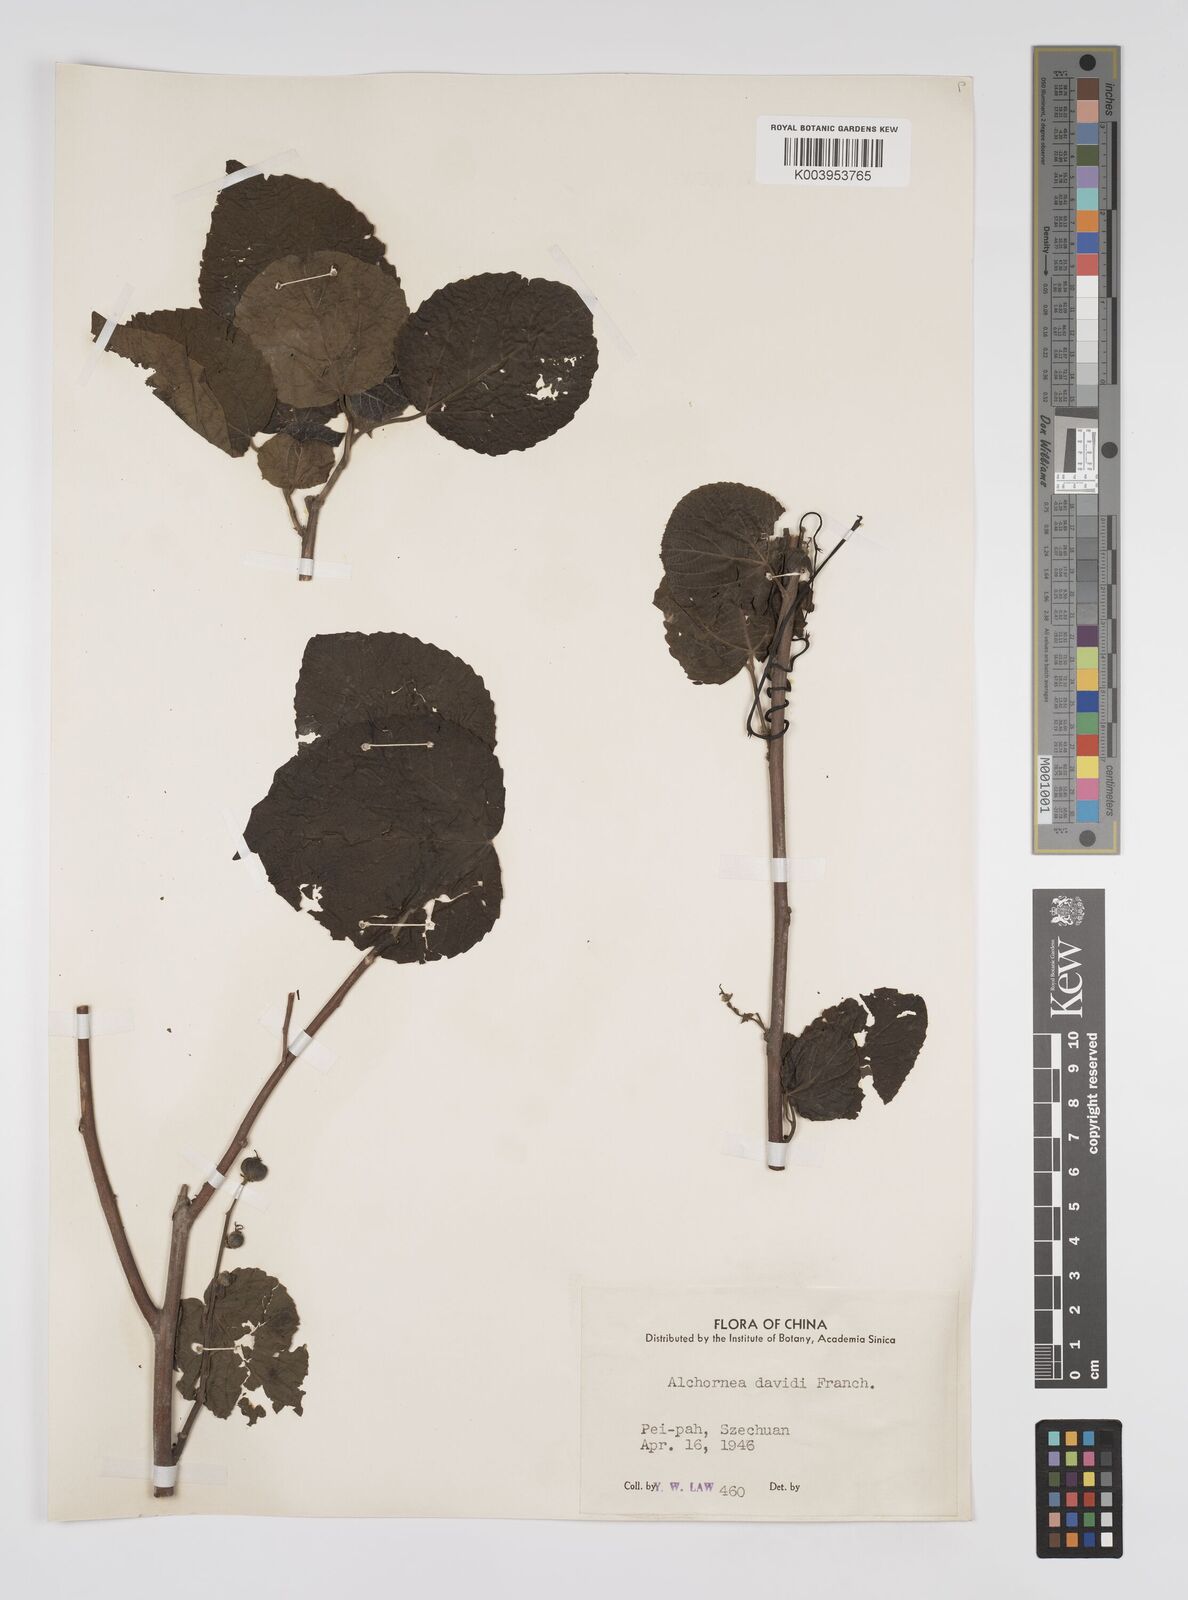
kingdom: Plantae
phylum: Tracheophyta
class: Magnoliopsida
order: Malpighiales
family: Euphorbiaceae
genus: Alchornea
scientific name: Alchornea davidii
